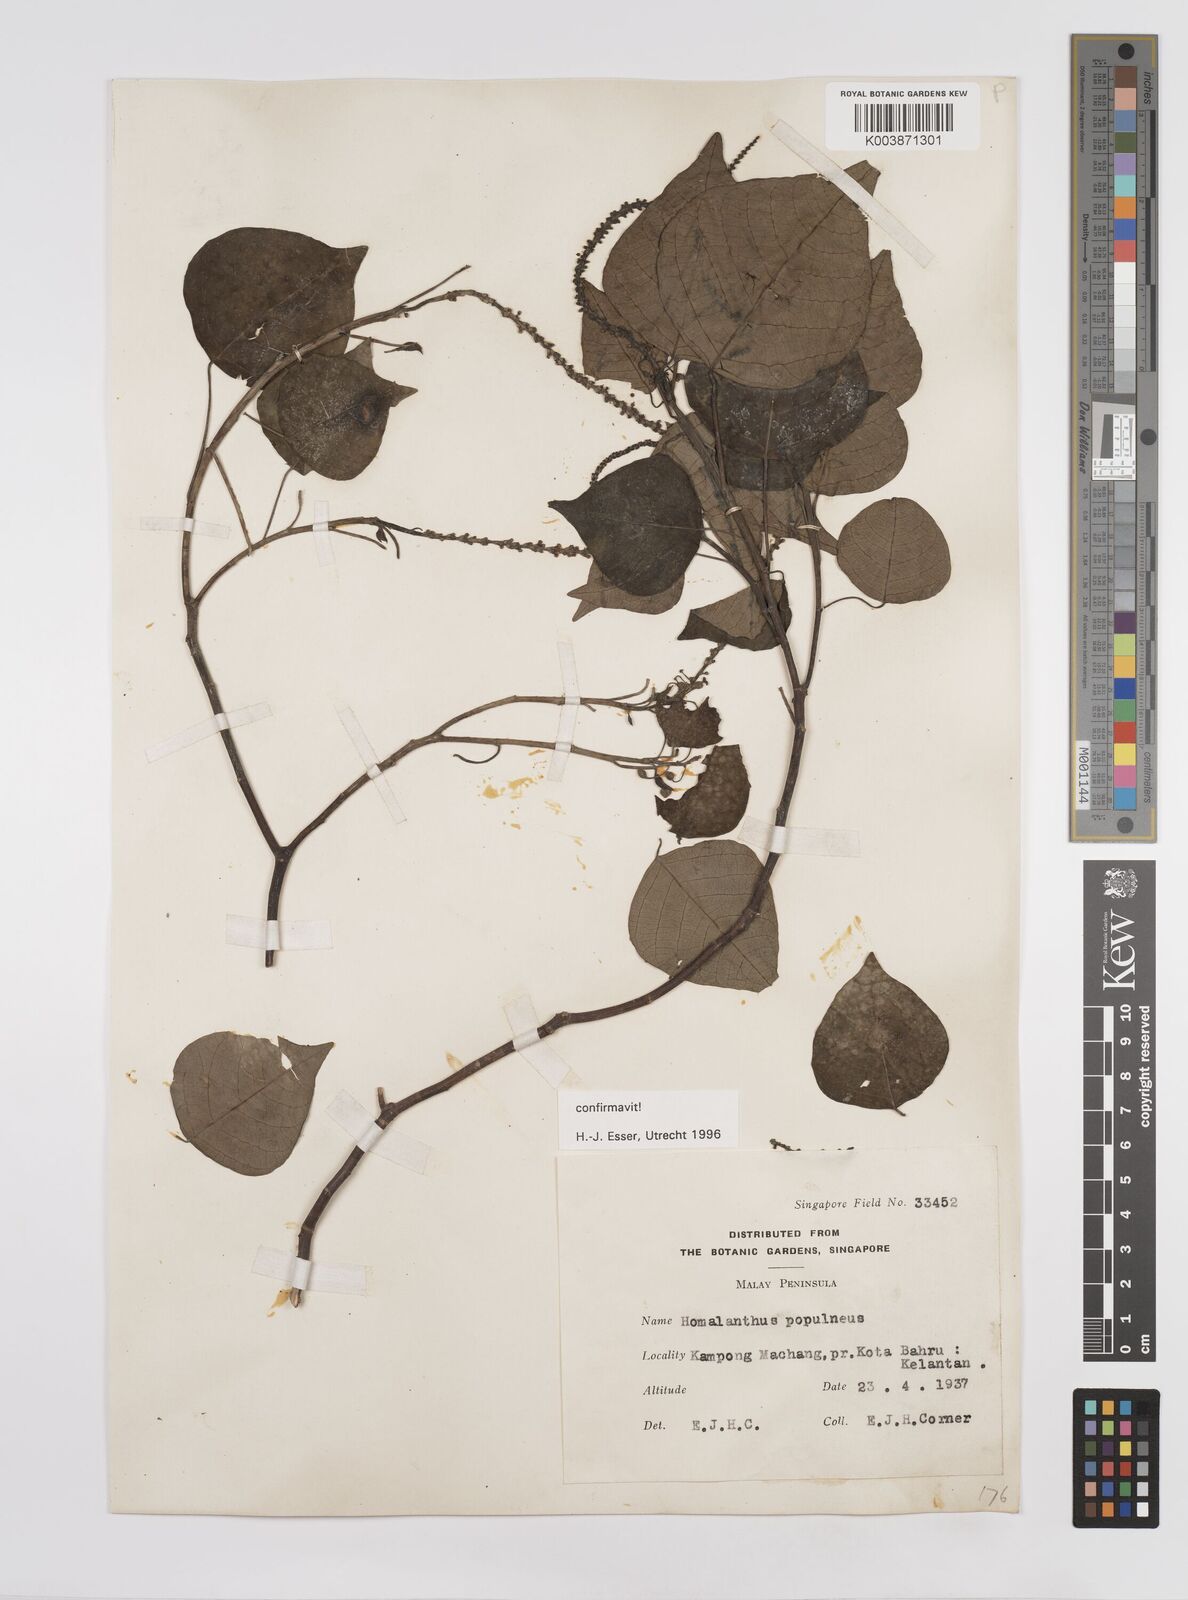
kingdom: Plantae
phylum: Tracheophyta
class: Magnoliopsida
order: Malpighiales
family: Euphorbiaceae
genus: Homalanthus
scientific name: Homalanthus populneus
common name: Spurge
